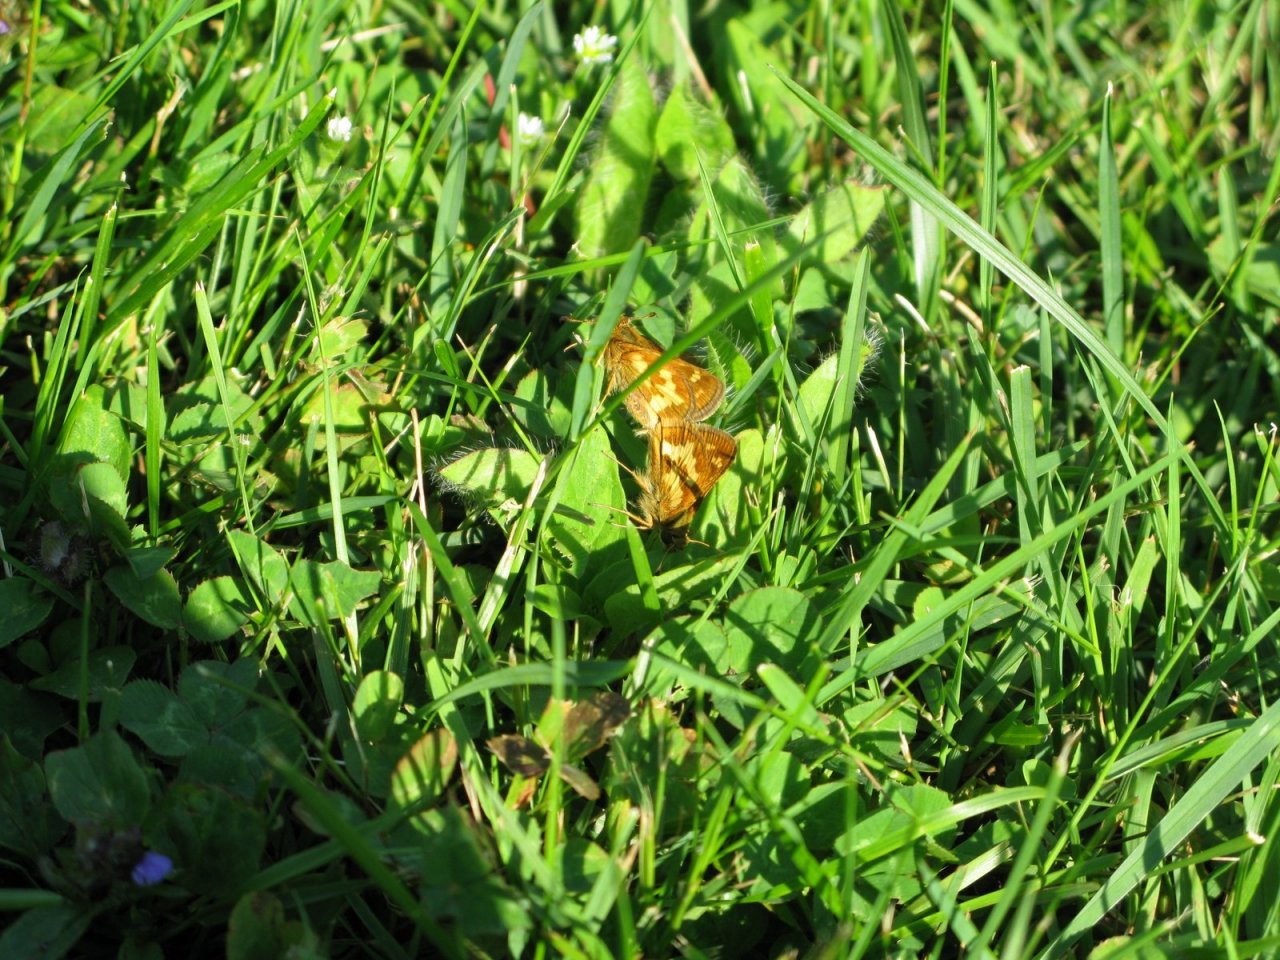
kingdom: Animalia
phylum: Arthropoda
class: Insecta
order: Lepidoptera
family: Hesperiidae
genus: Polites
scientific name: Polites coras
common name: Peck's Skipper
